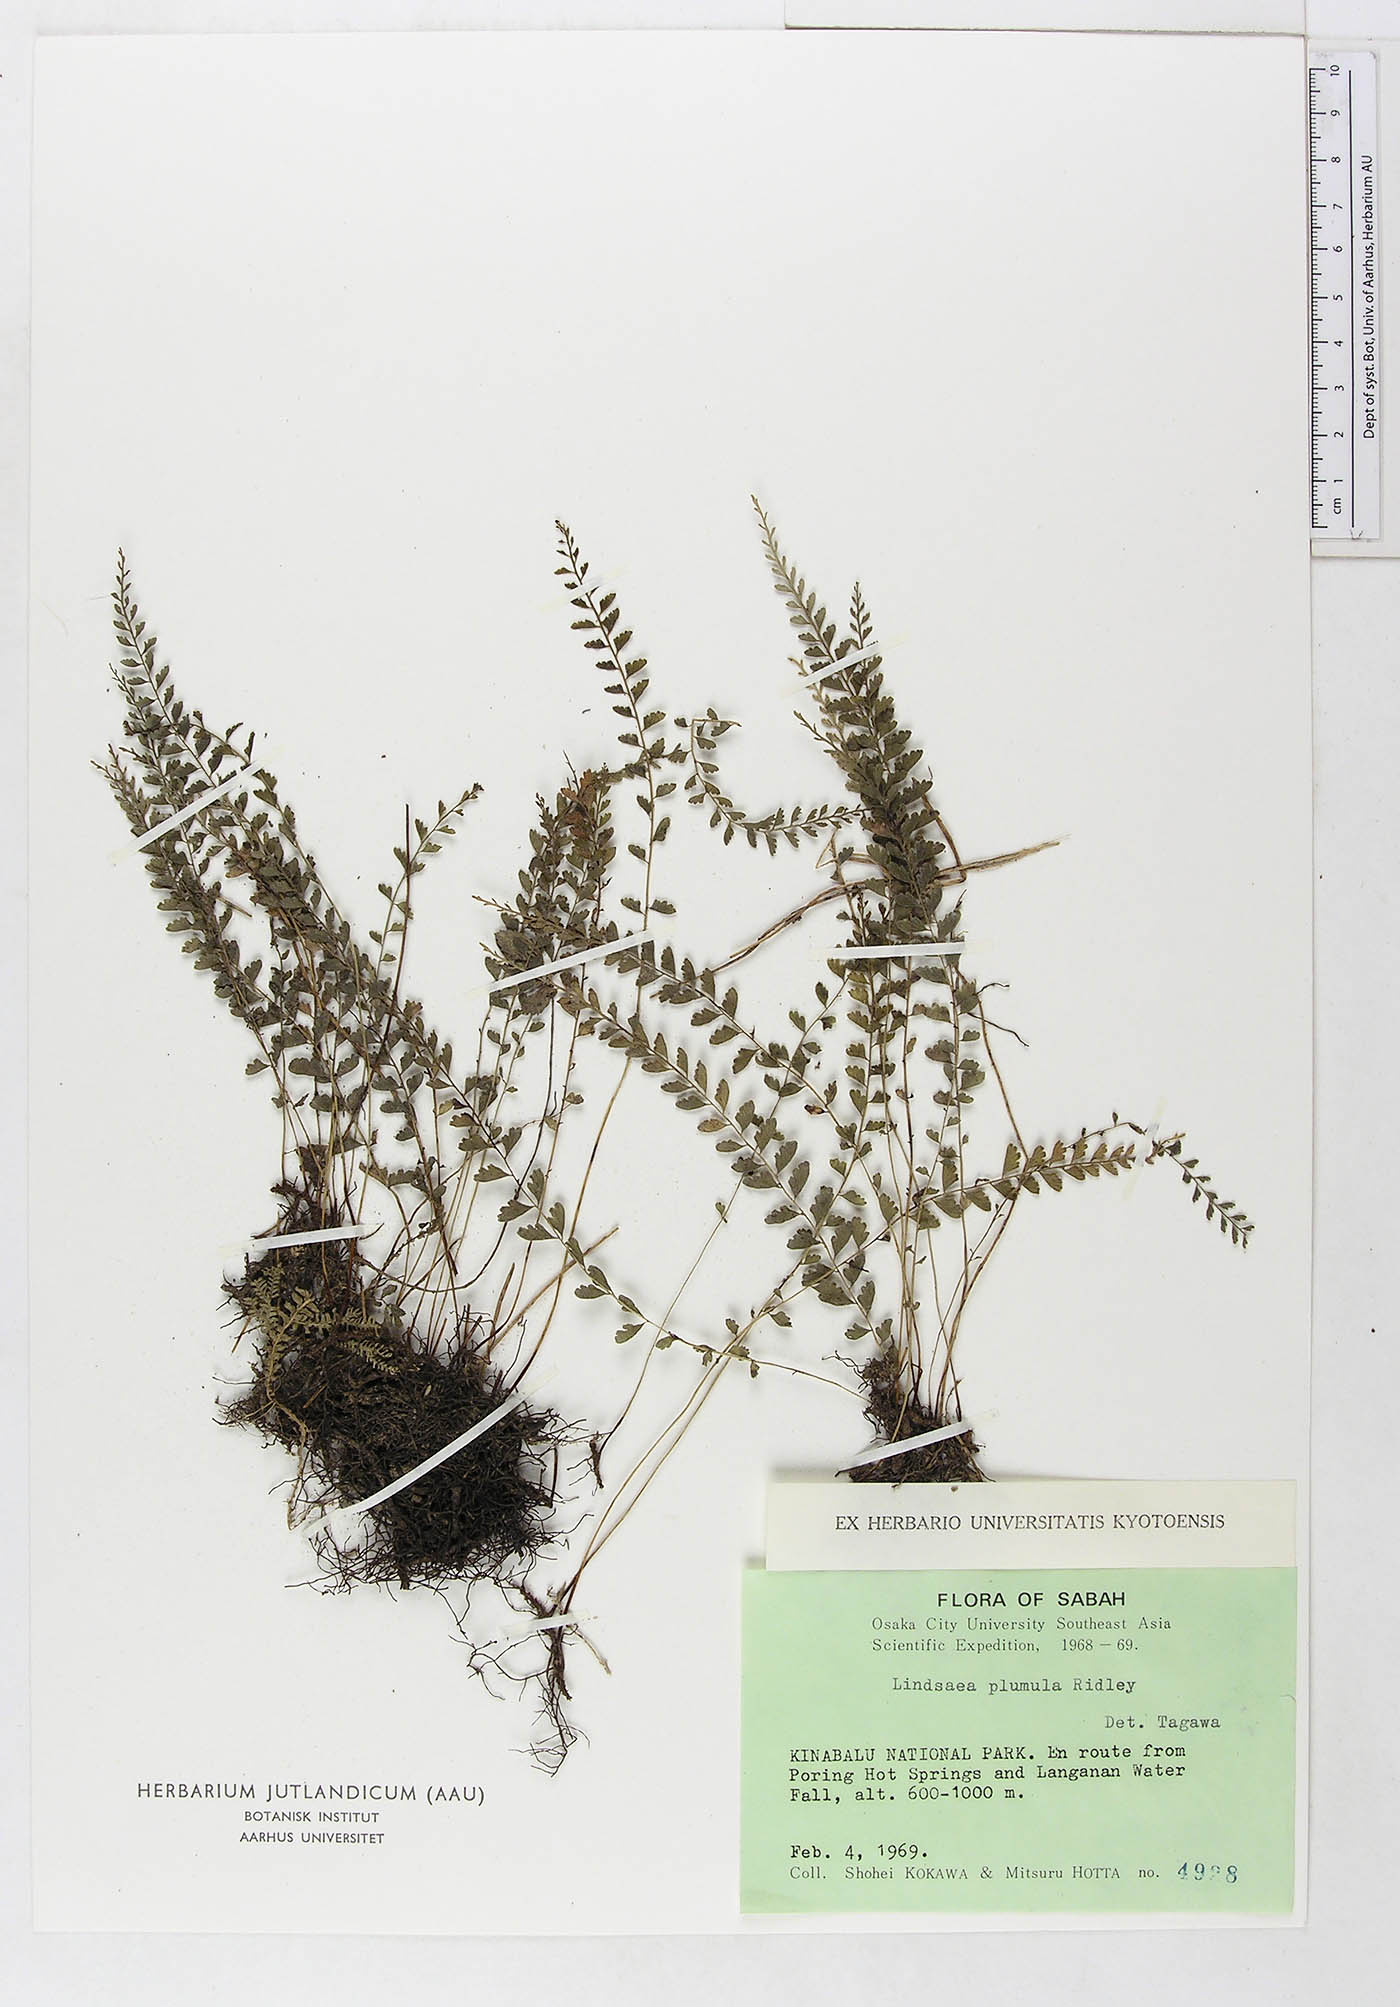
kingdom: Plantae
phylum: Tracheophyta
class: Polypodiopsida
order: Polypodiales
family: Dennstaedtiaceae
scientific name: Dennstaedtiaceae
